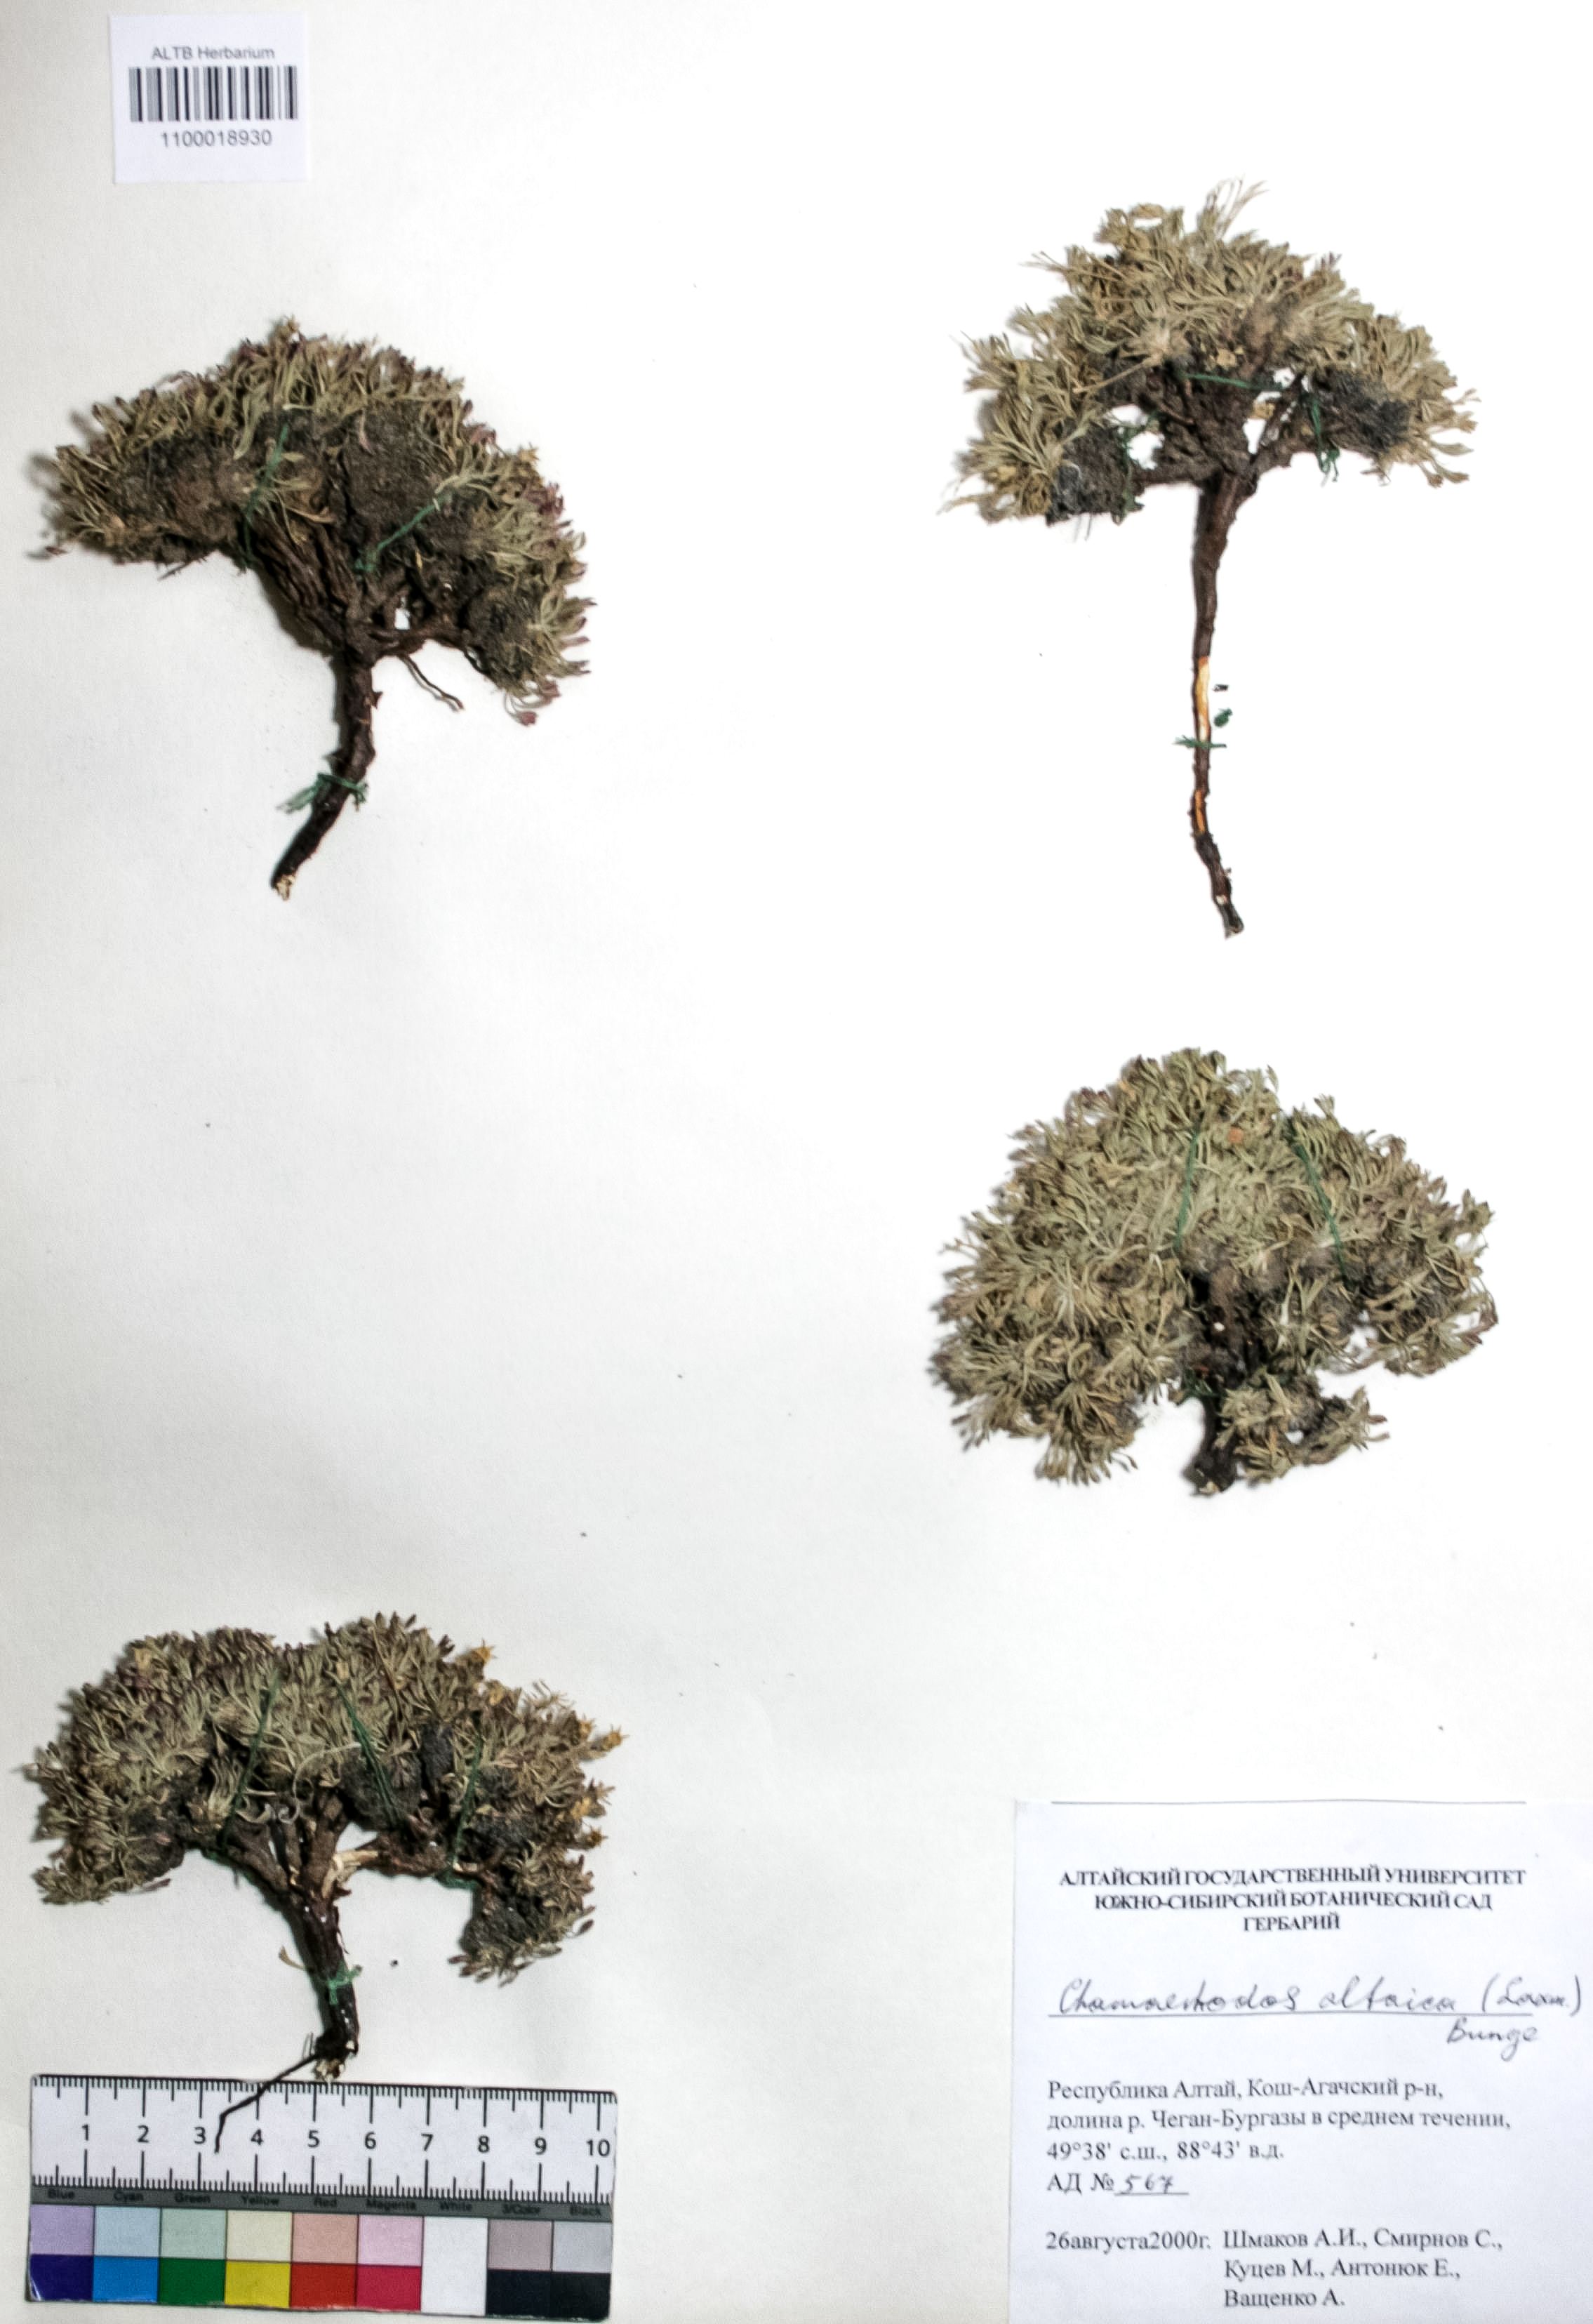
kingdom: Plantae
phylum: Tracheophyta
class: Magnoliopsida
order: Rosales
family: Rosaceae
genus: Chamaerhodos
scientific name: Chamaerhodos altaica
